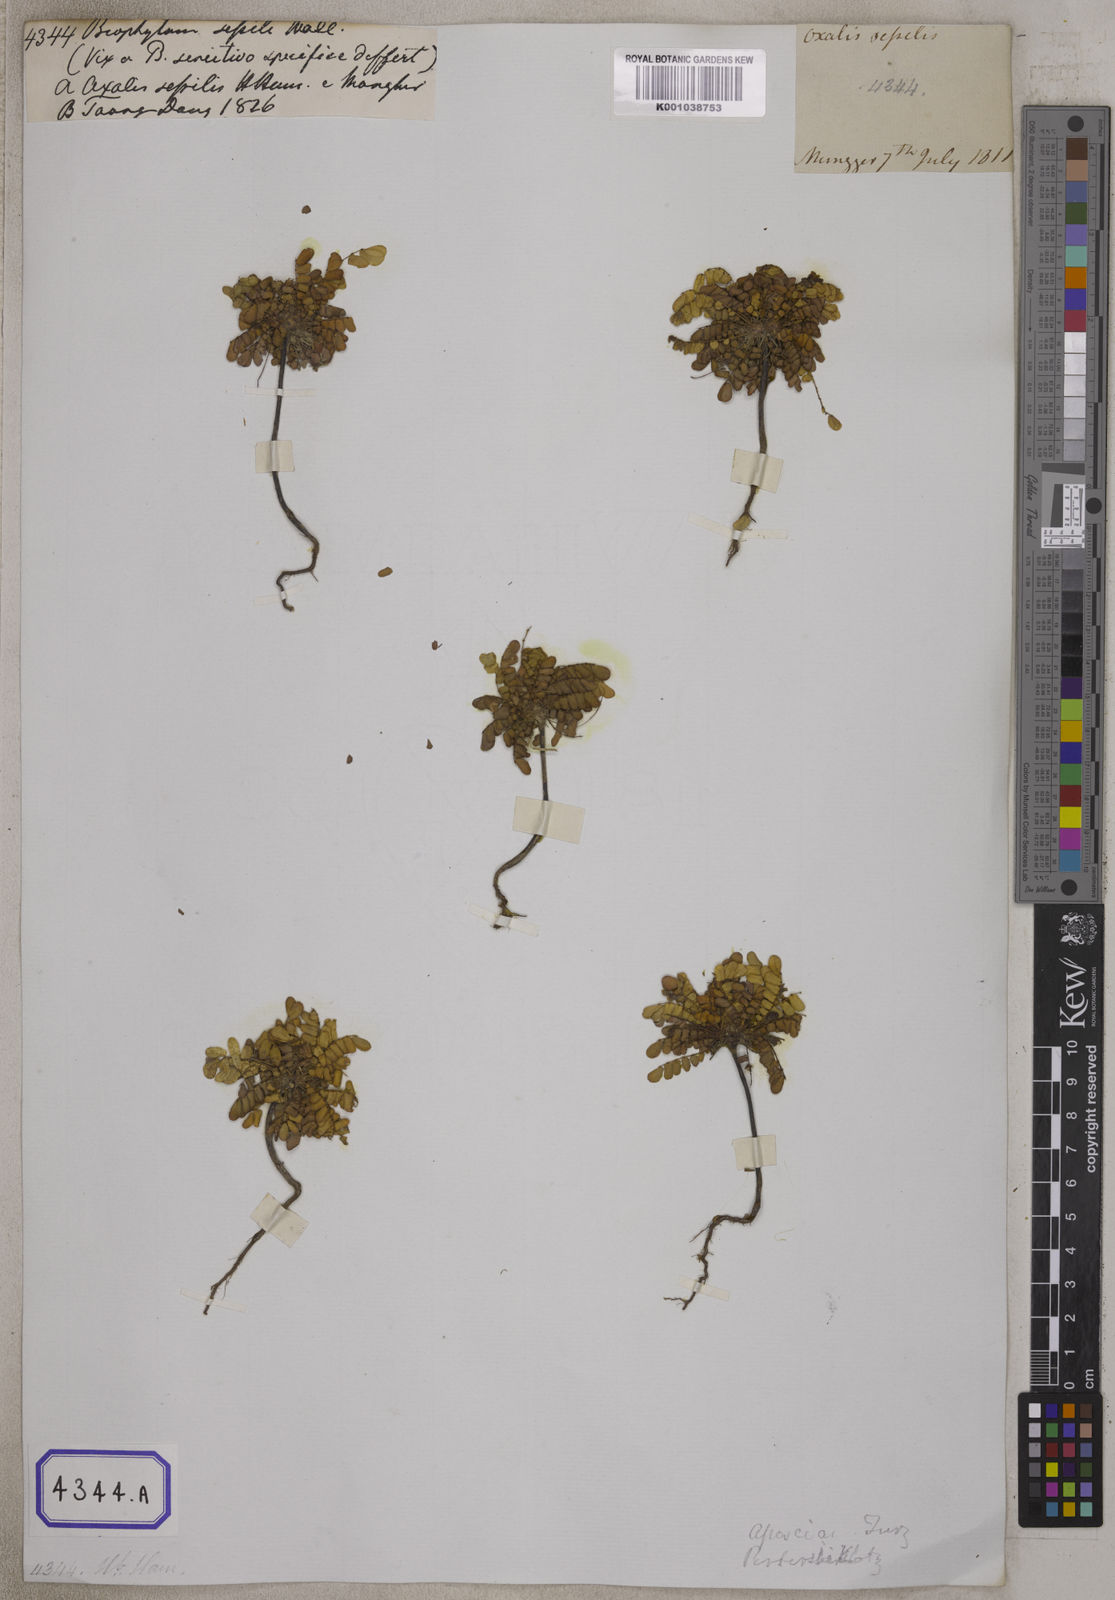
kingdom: Plantae
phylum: Tracheophyta
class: Magnoliopsida
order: Oxalidales
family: Oxalidaceae
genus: Biophytum
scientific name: Biophytum
